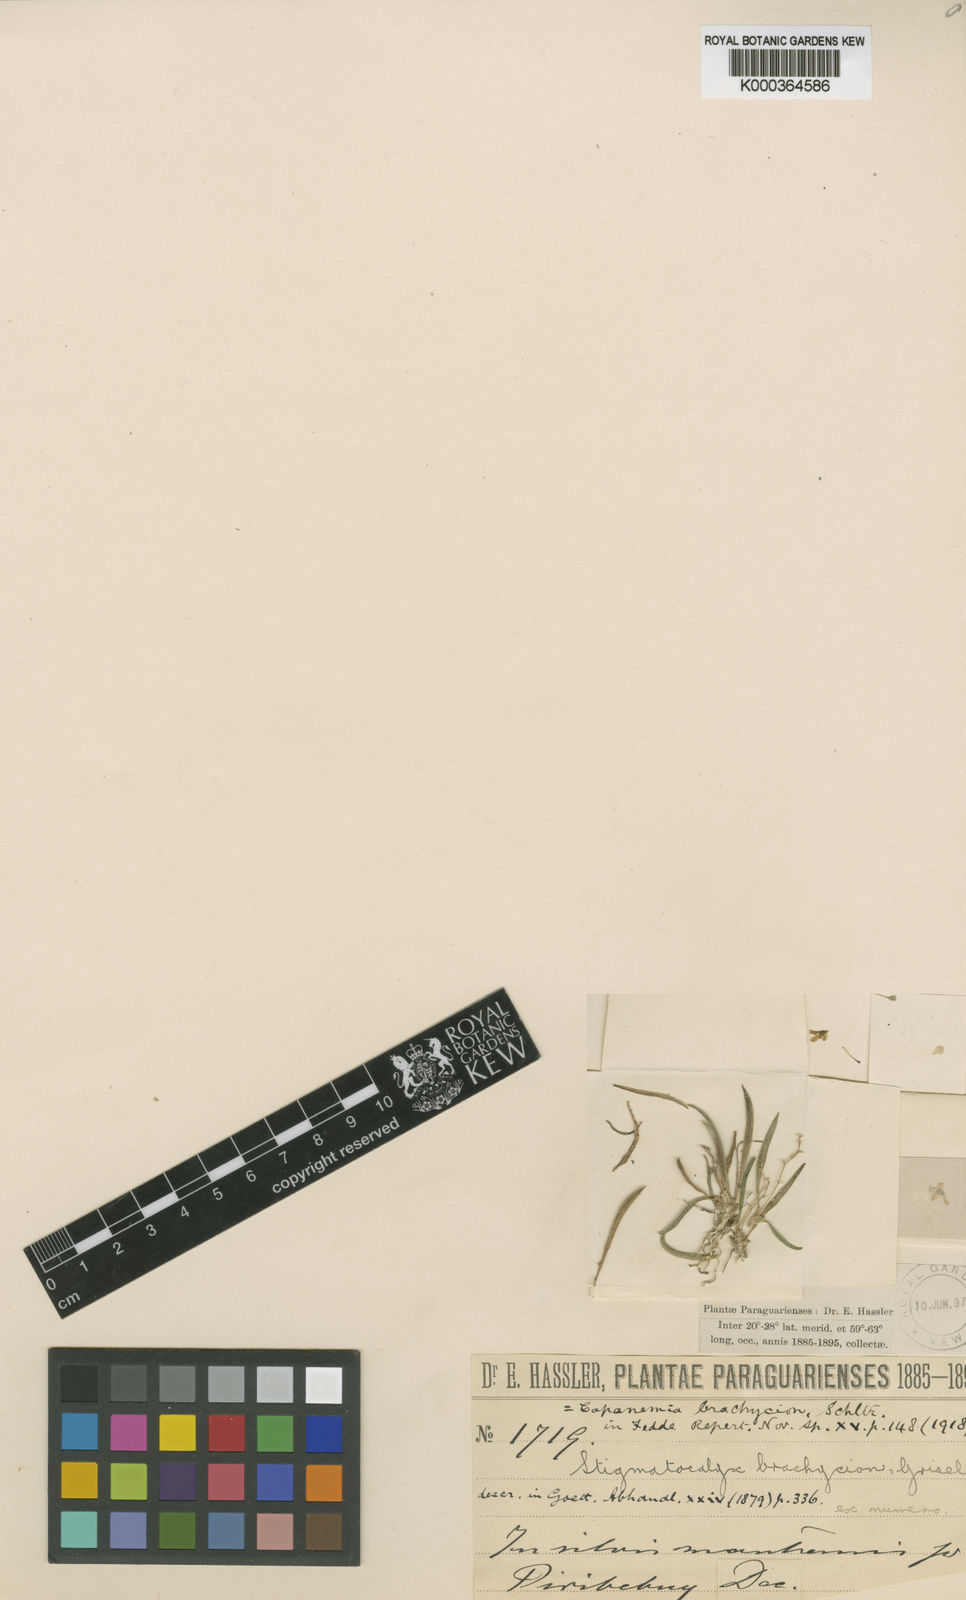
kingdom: Plantae
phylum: Tracheophyta
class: Liliopsida
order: Asparagales
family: Orchidaceae
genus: Capanemia
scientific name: Capanemia brachycion
